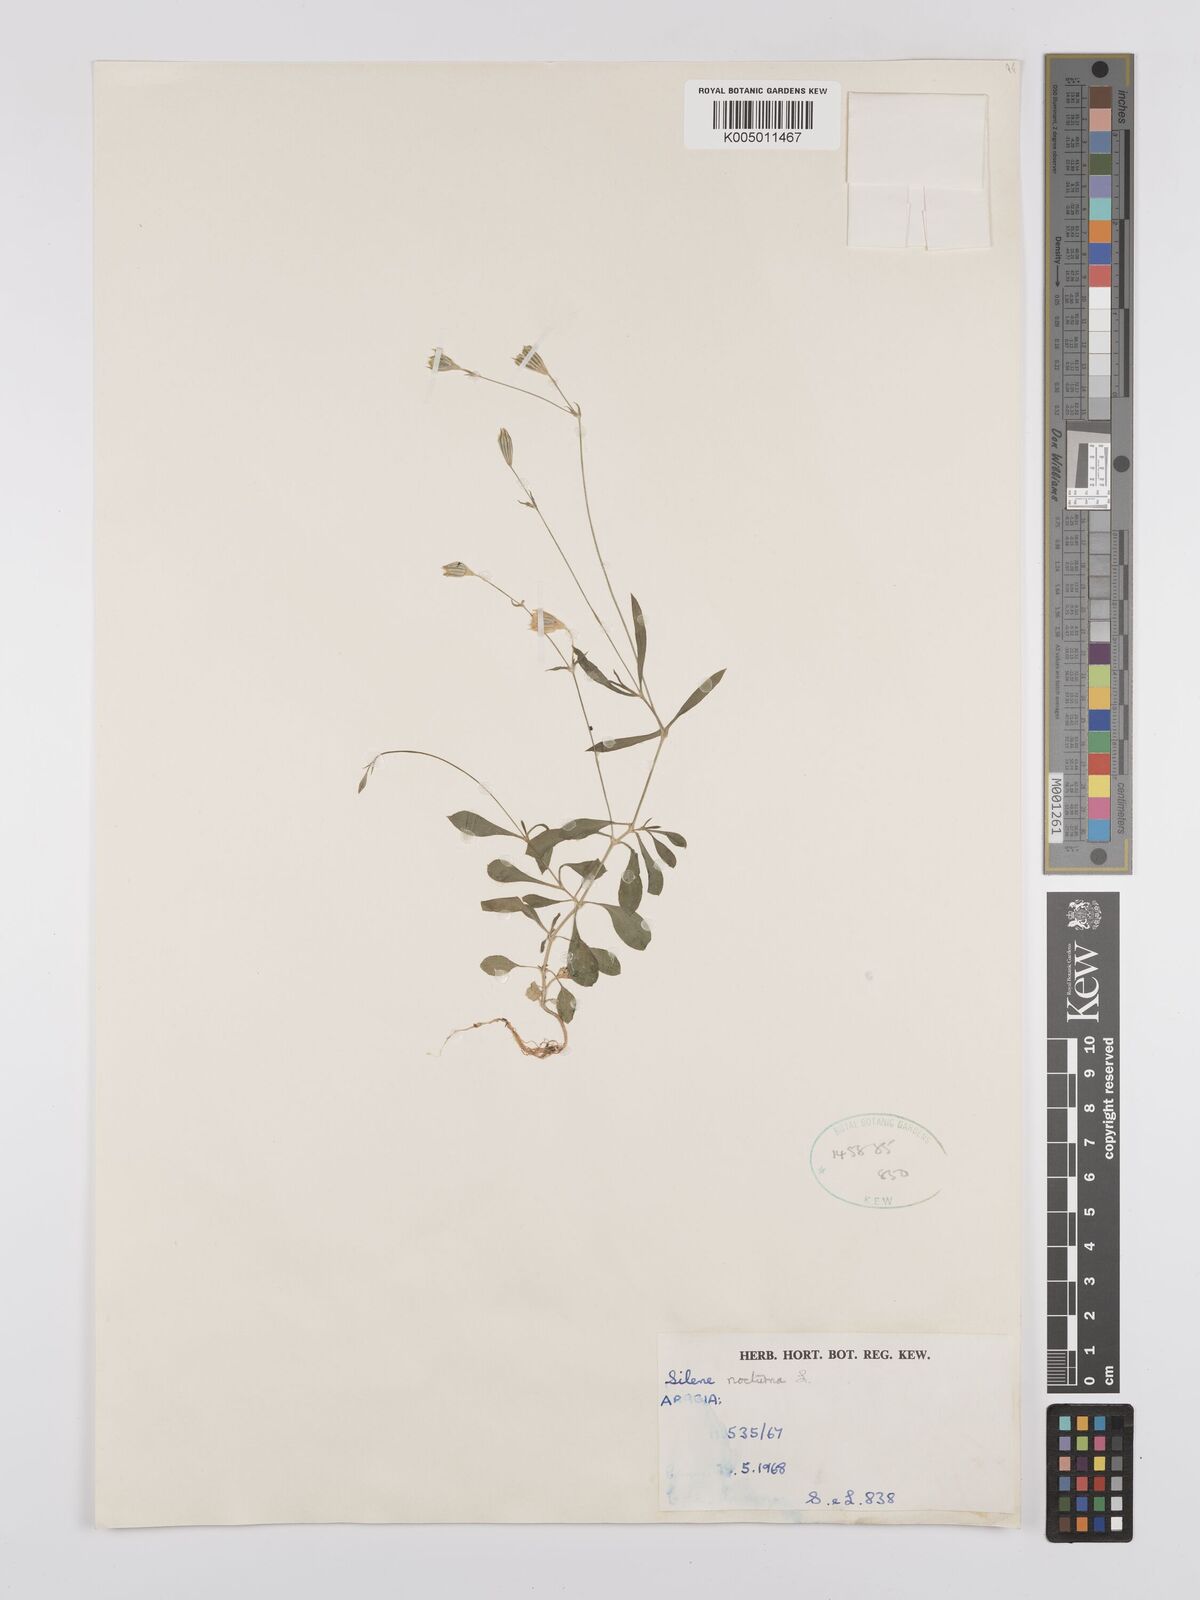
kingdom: Plantae
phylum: Tracheophyta
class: Magnoliopsida
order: Caryophyllales
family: Caryophyllaceae
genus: Silene
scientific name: Silene nocturna
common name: Mediterranean catchfly
